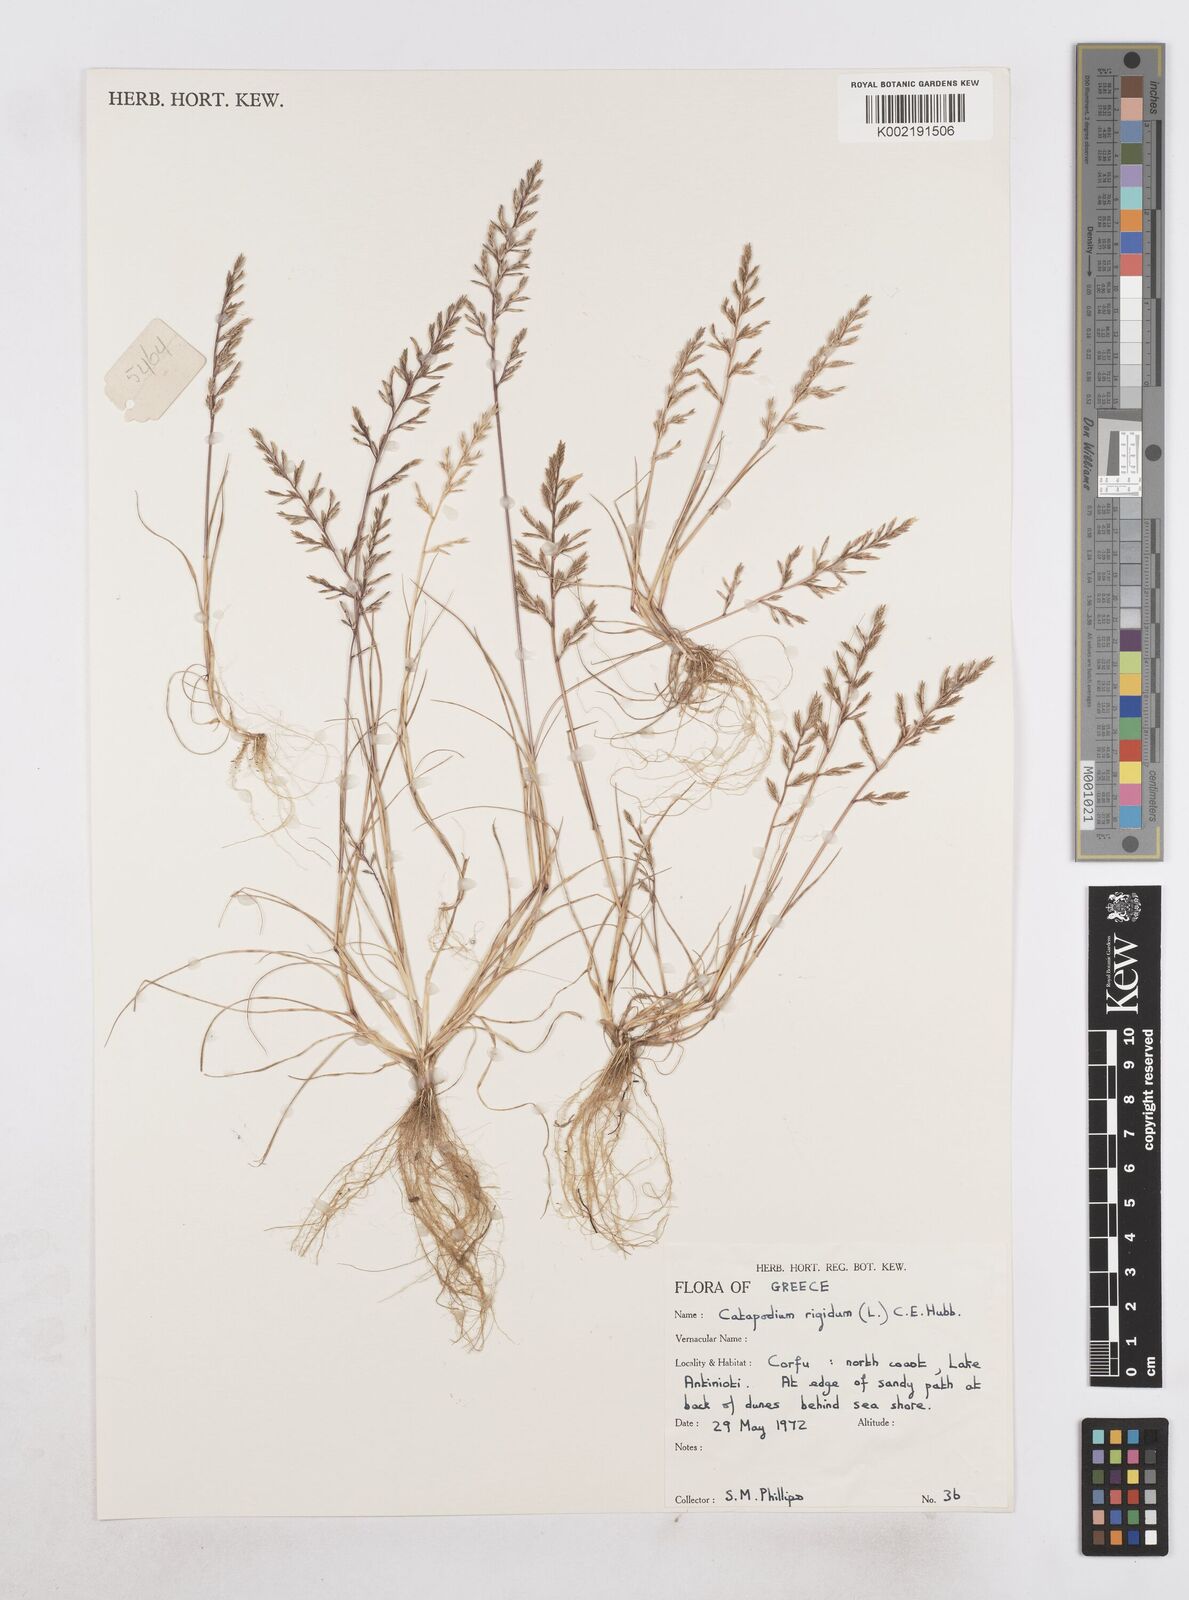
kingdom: Plantae
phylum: Tracheophyta
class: Liliopsida
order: Poales
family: Poaceae
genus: Catapodium
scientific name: Catapodium rigidum
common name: Fern-grass
